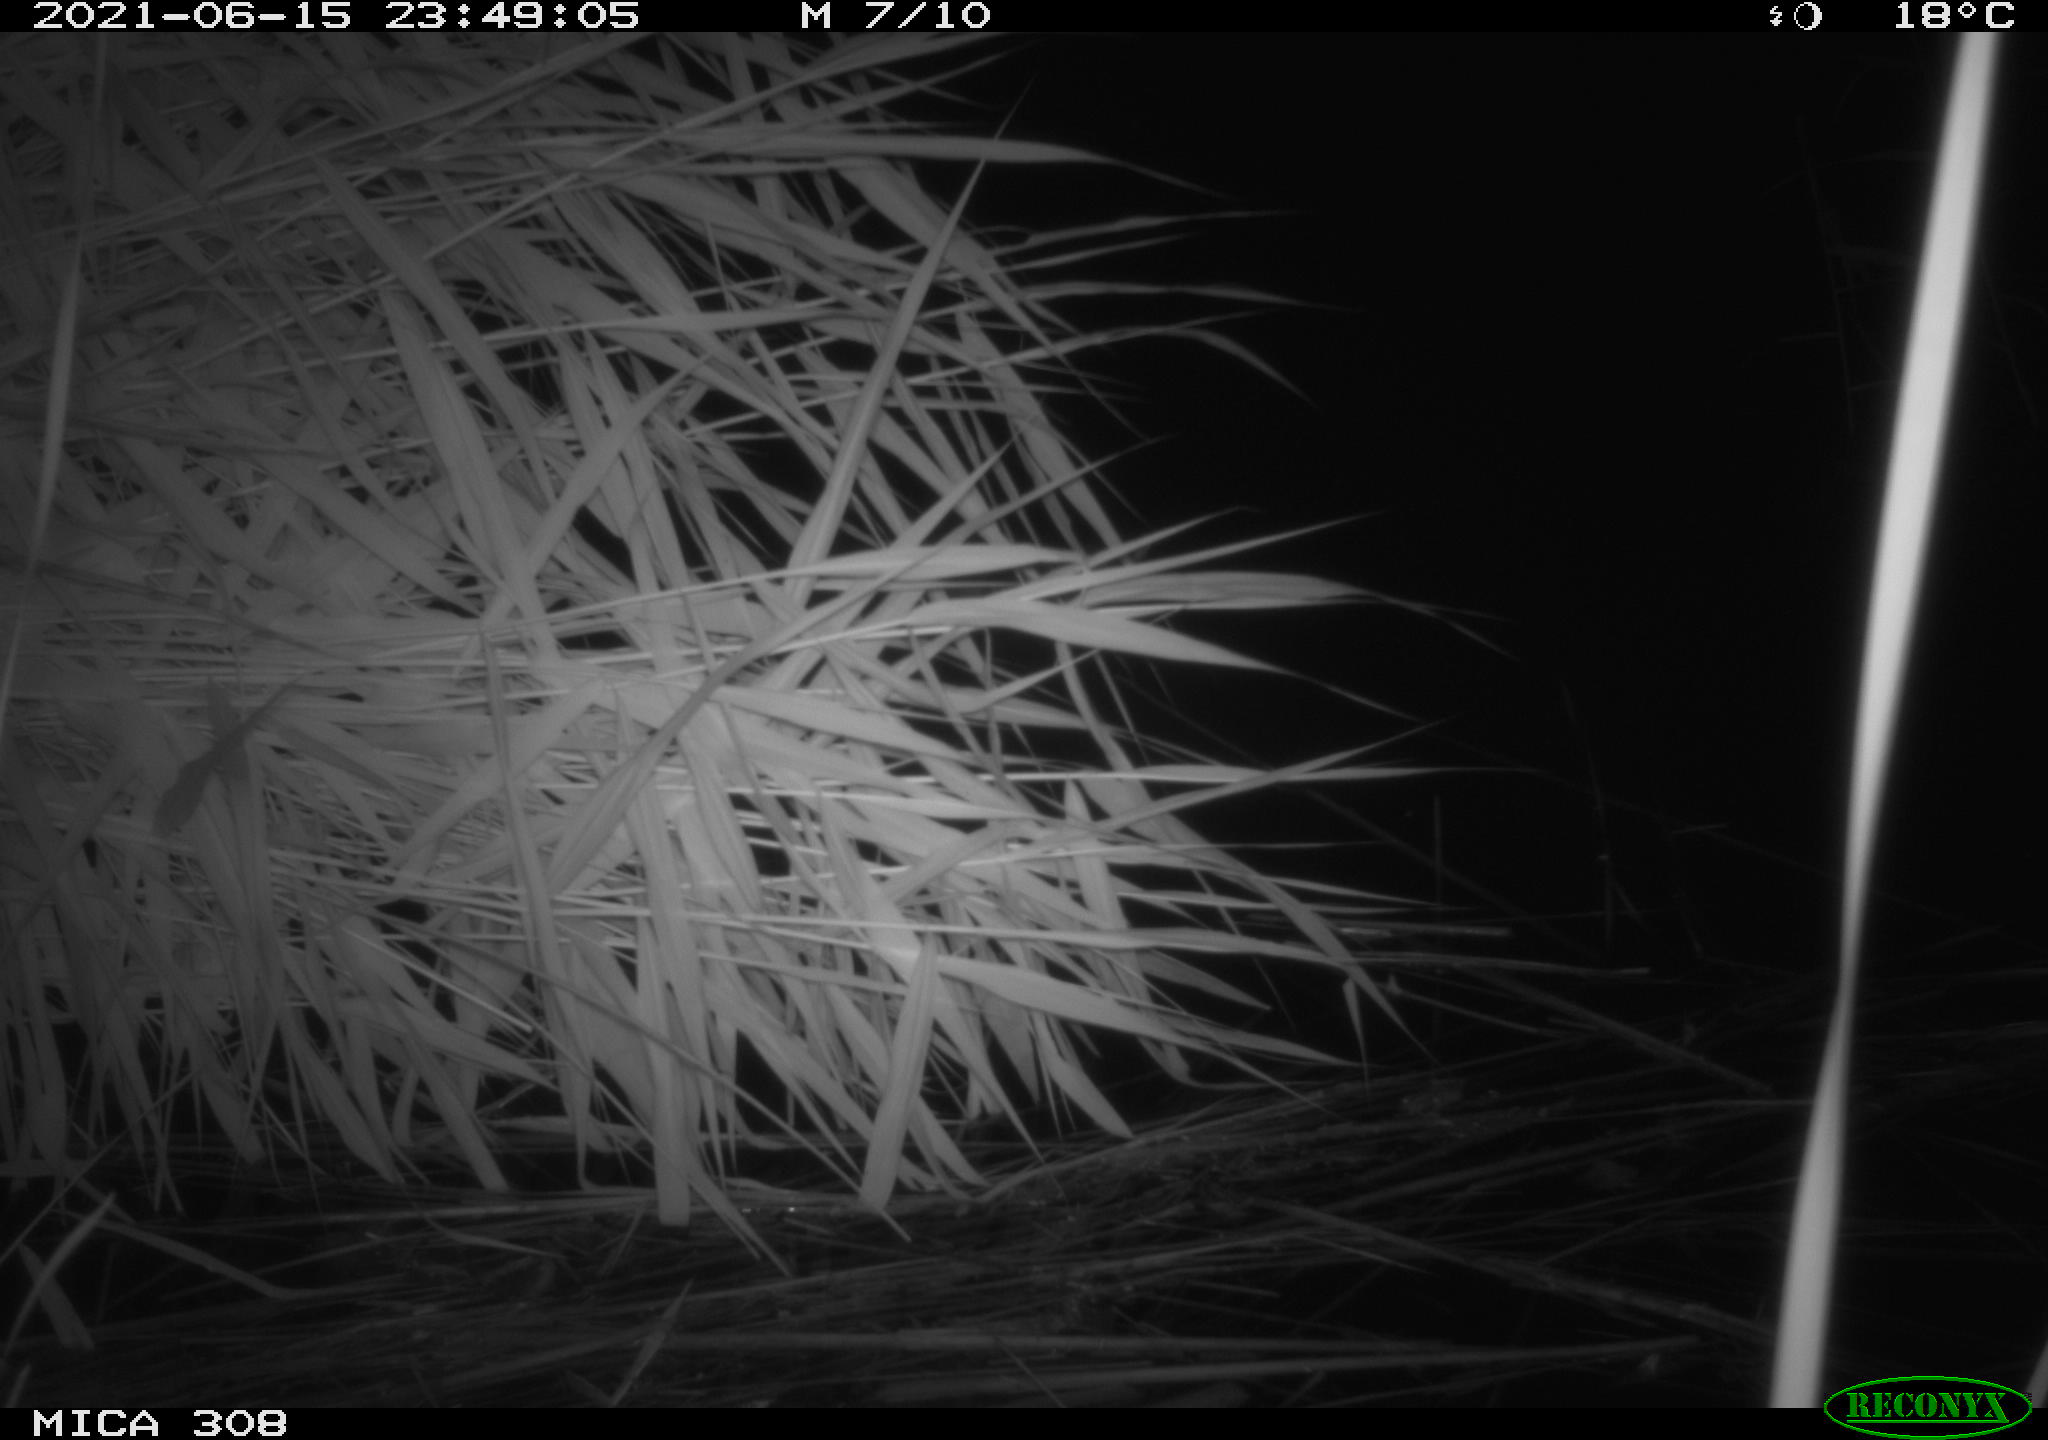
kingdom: Animalia
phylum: Chordata
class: Aves
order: Anseriformes
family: Anatidae
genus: Anas
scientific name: Anas platyrhynchos
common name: Mallard
